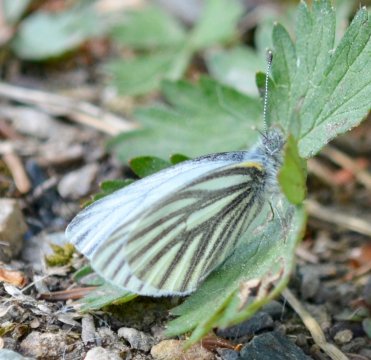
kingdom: Animalia
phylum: Arthropoda
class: Insecta
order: Lepidoptera
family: Pieridae
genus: Pieris
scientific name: Pieris angelika
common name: Arctic White
